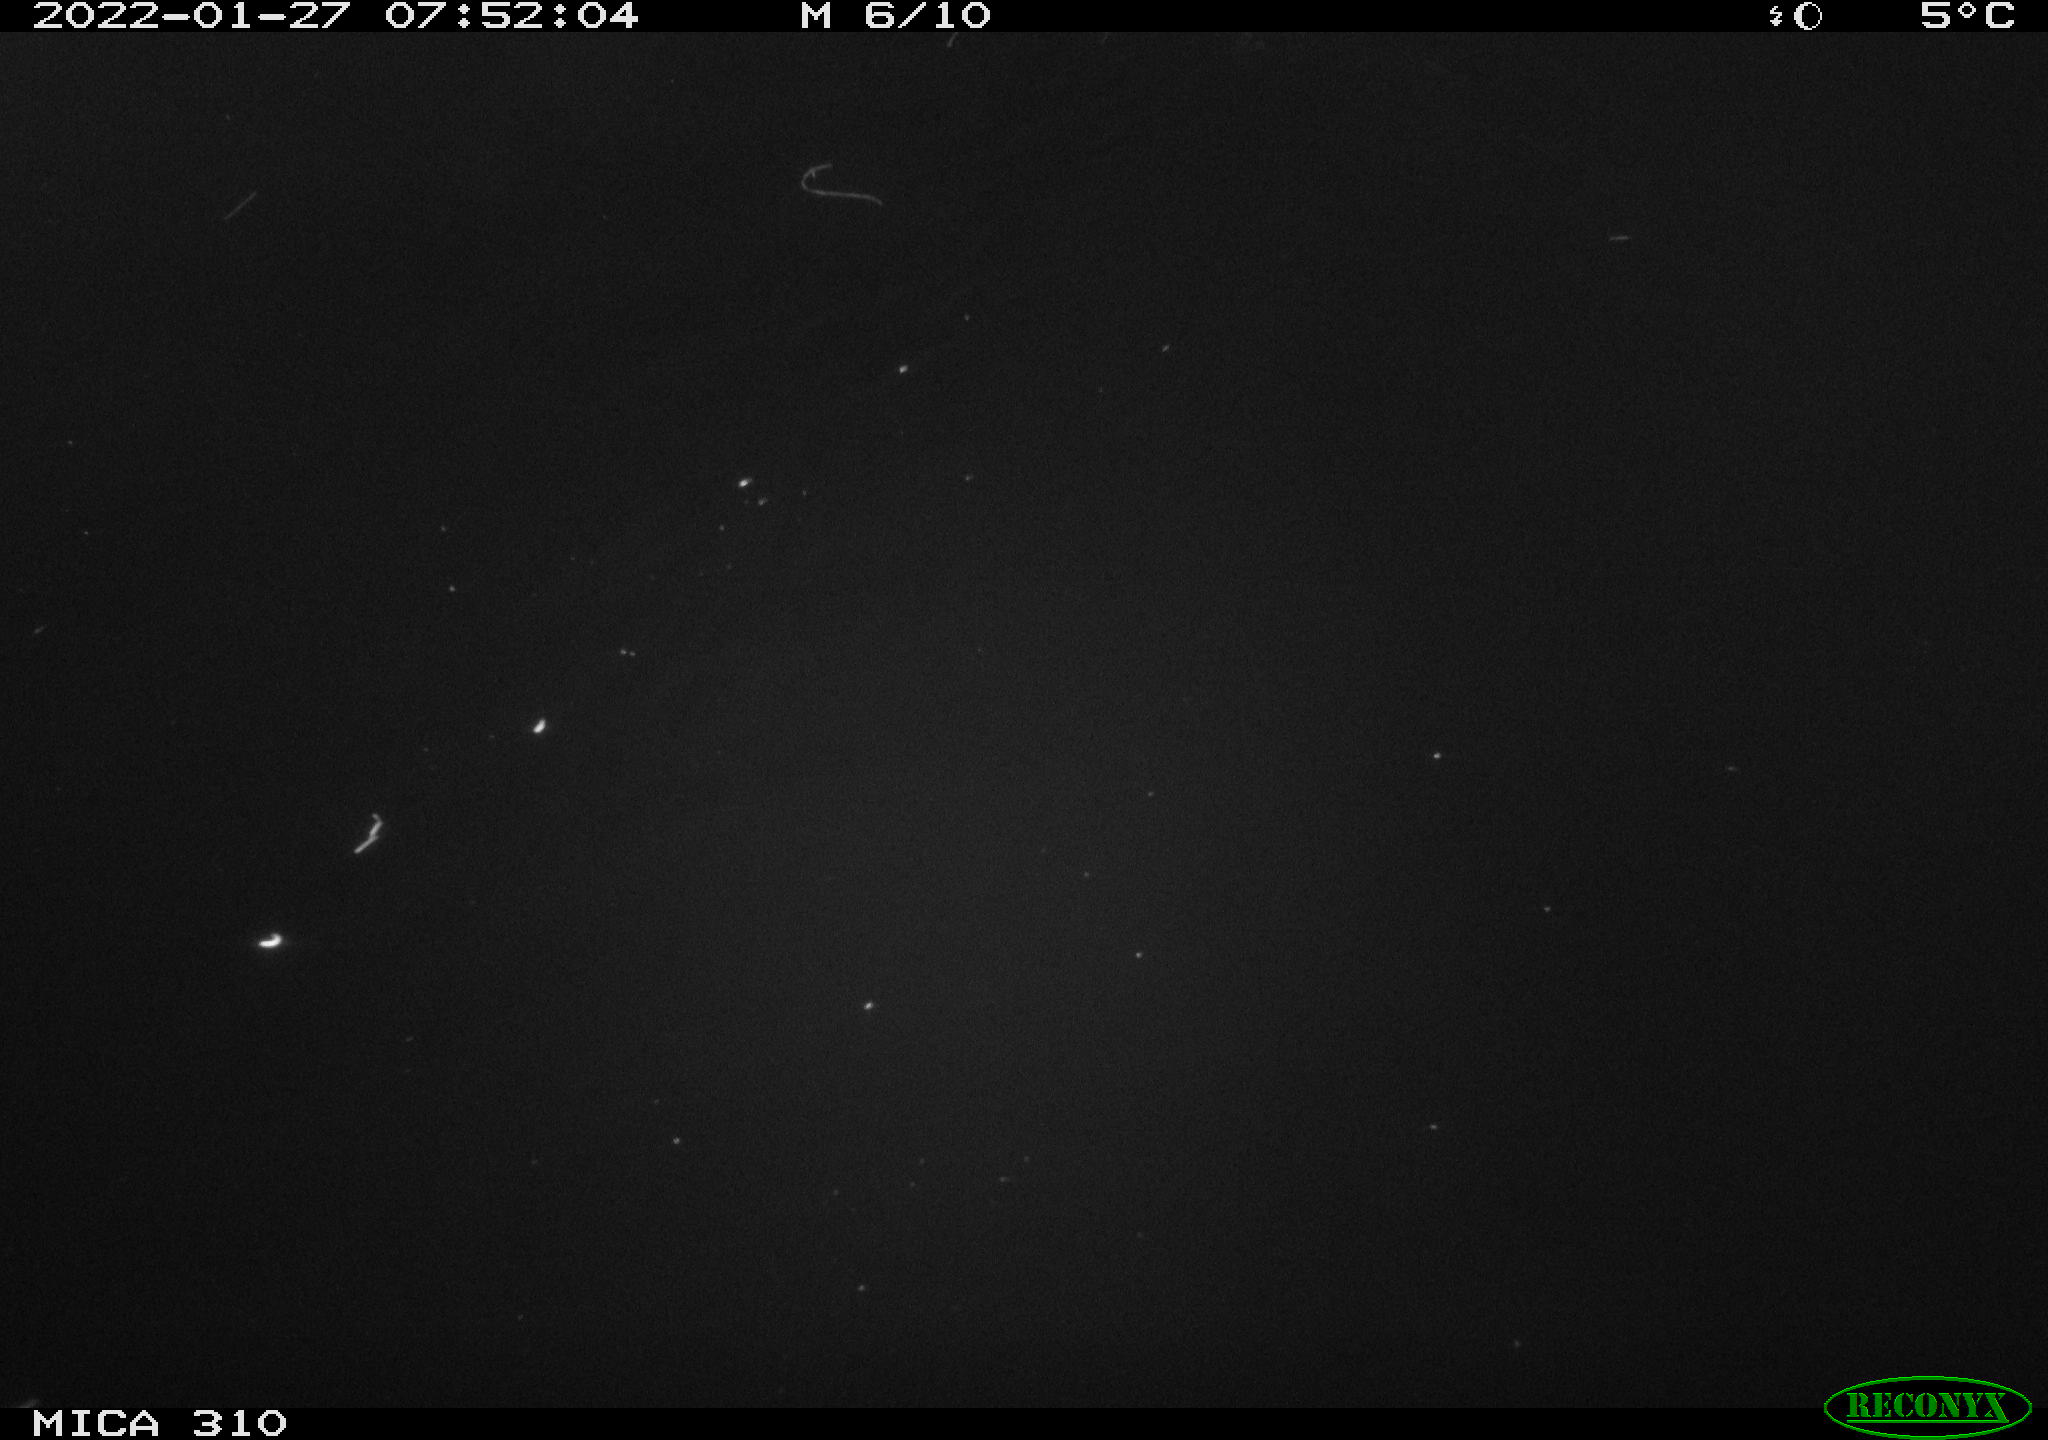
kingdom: Animalia
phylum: Chordata
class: Aves
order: Anseriformes
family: Anatidae
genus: Anas
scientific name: Anas
